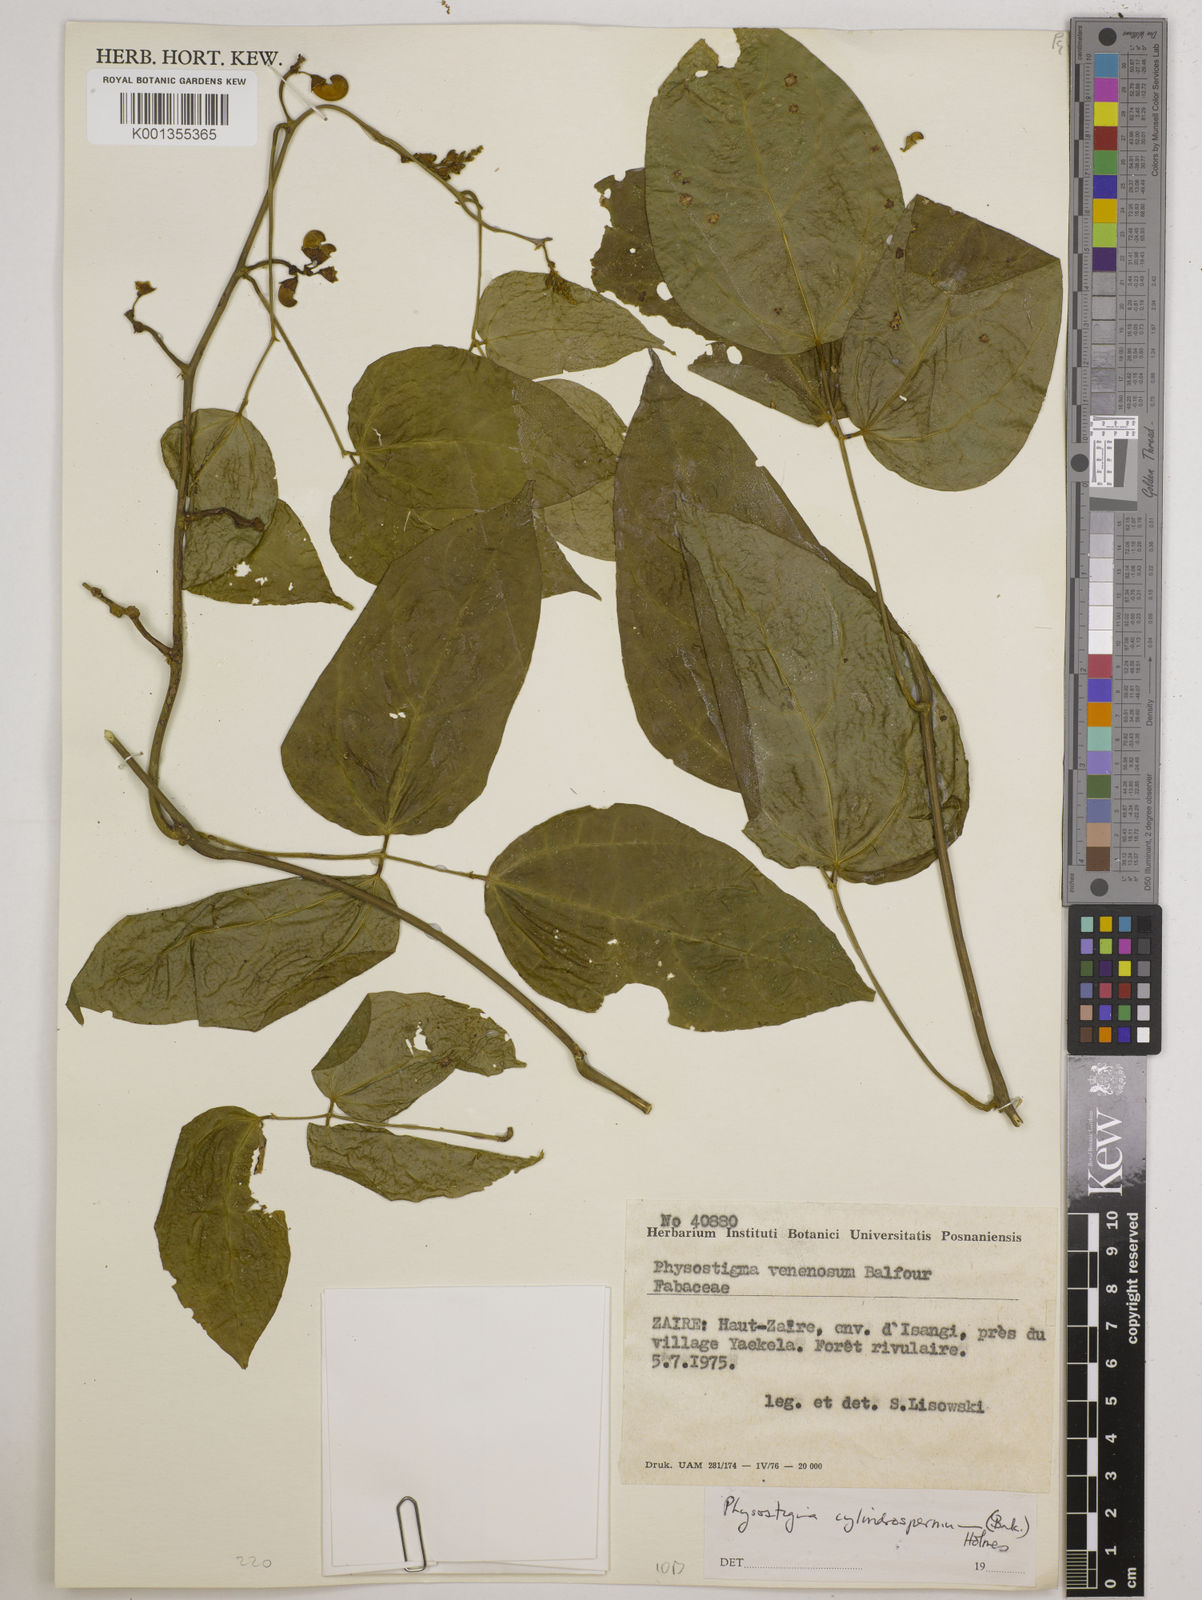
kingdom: Plantae
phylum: Tracheophyta
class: Magnoliopsida
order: Fabales
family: Fabaceae
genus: Physostigma
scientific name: Physostigma cylindrospermum
